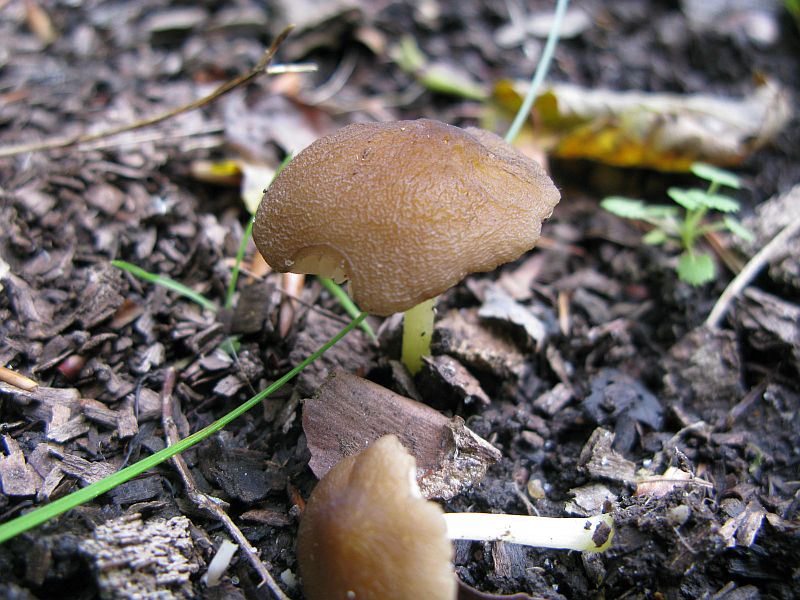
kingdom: Fungi
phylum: Basidiomycota
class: Agaricomycetes
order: Agaricales
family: Pluteaceae
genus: Pluteus
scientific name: Pluteus romellii
